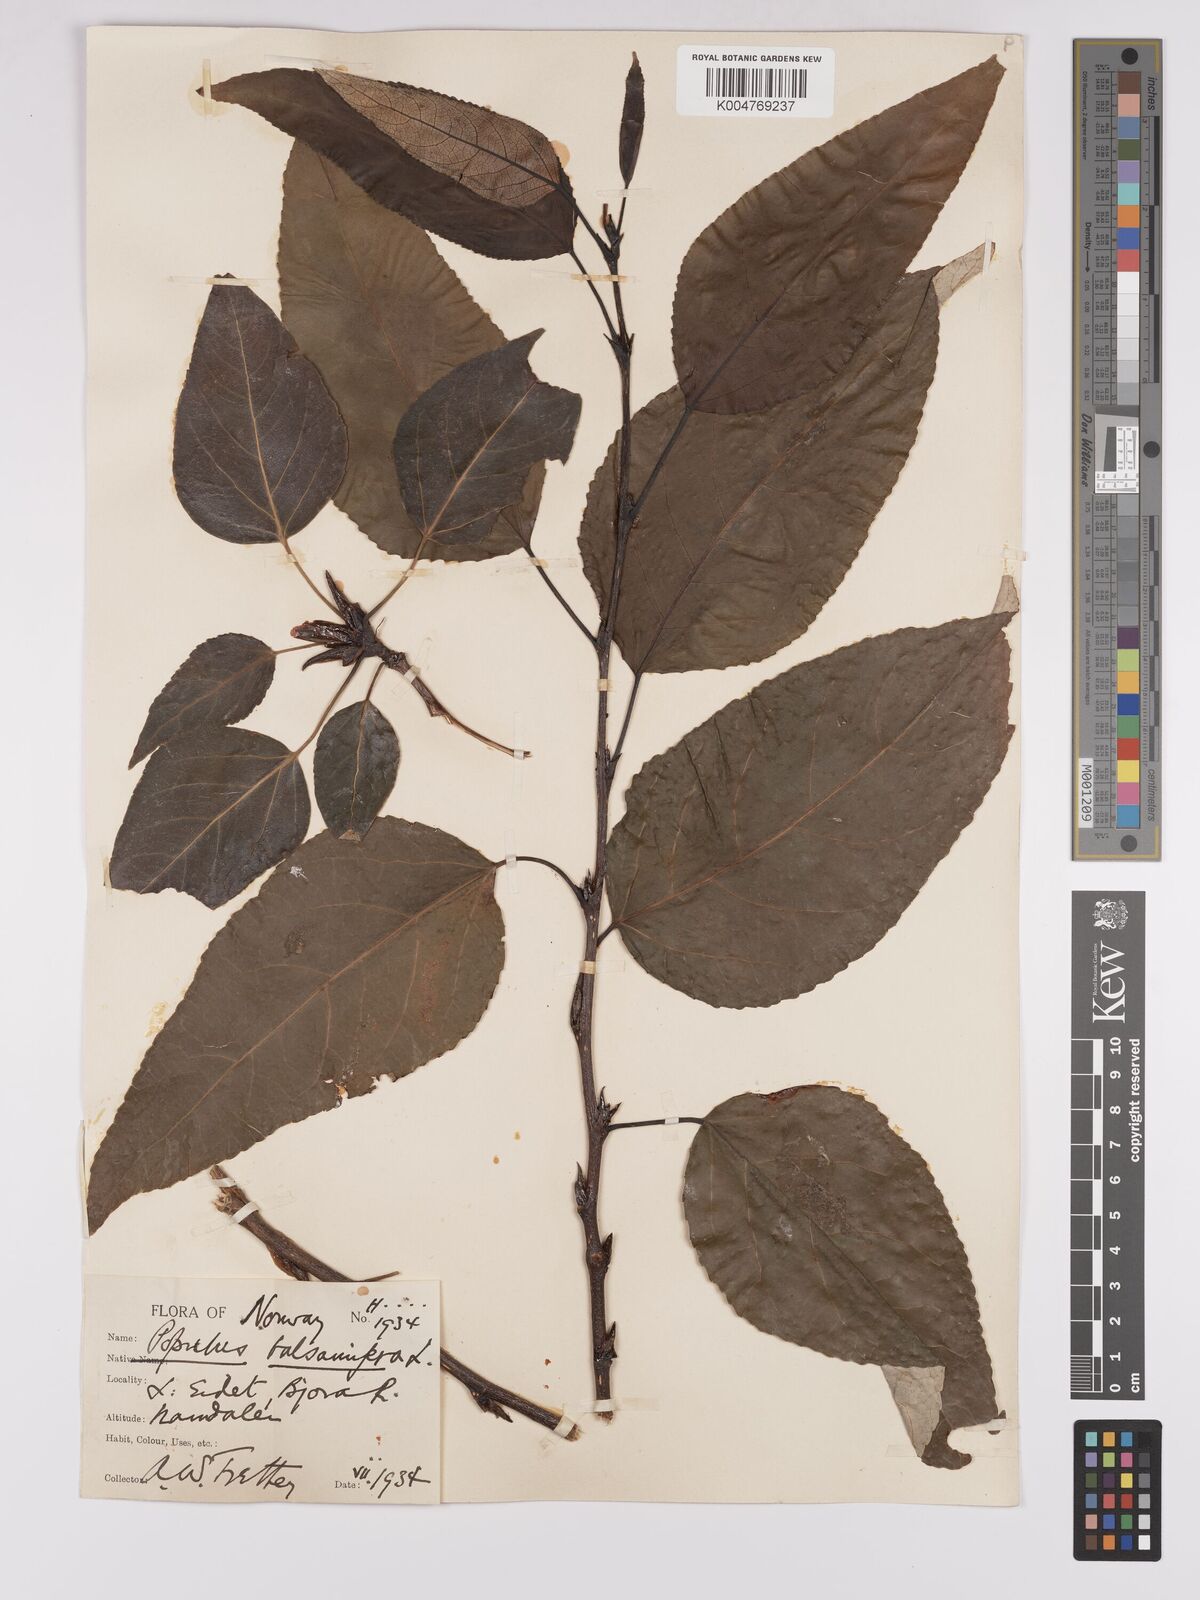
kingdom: Plantae
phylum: Tracheophyta
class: Magnoliopsida
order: Malpighiales
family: Salicaceae
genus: Populus
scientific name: Populus balsamifera
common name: Balsam poplar
